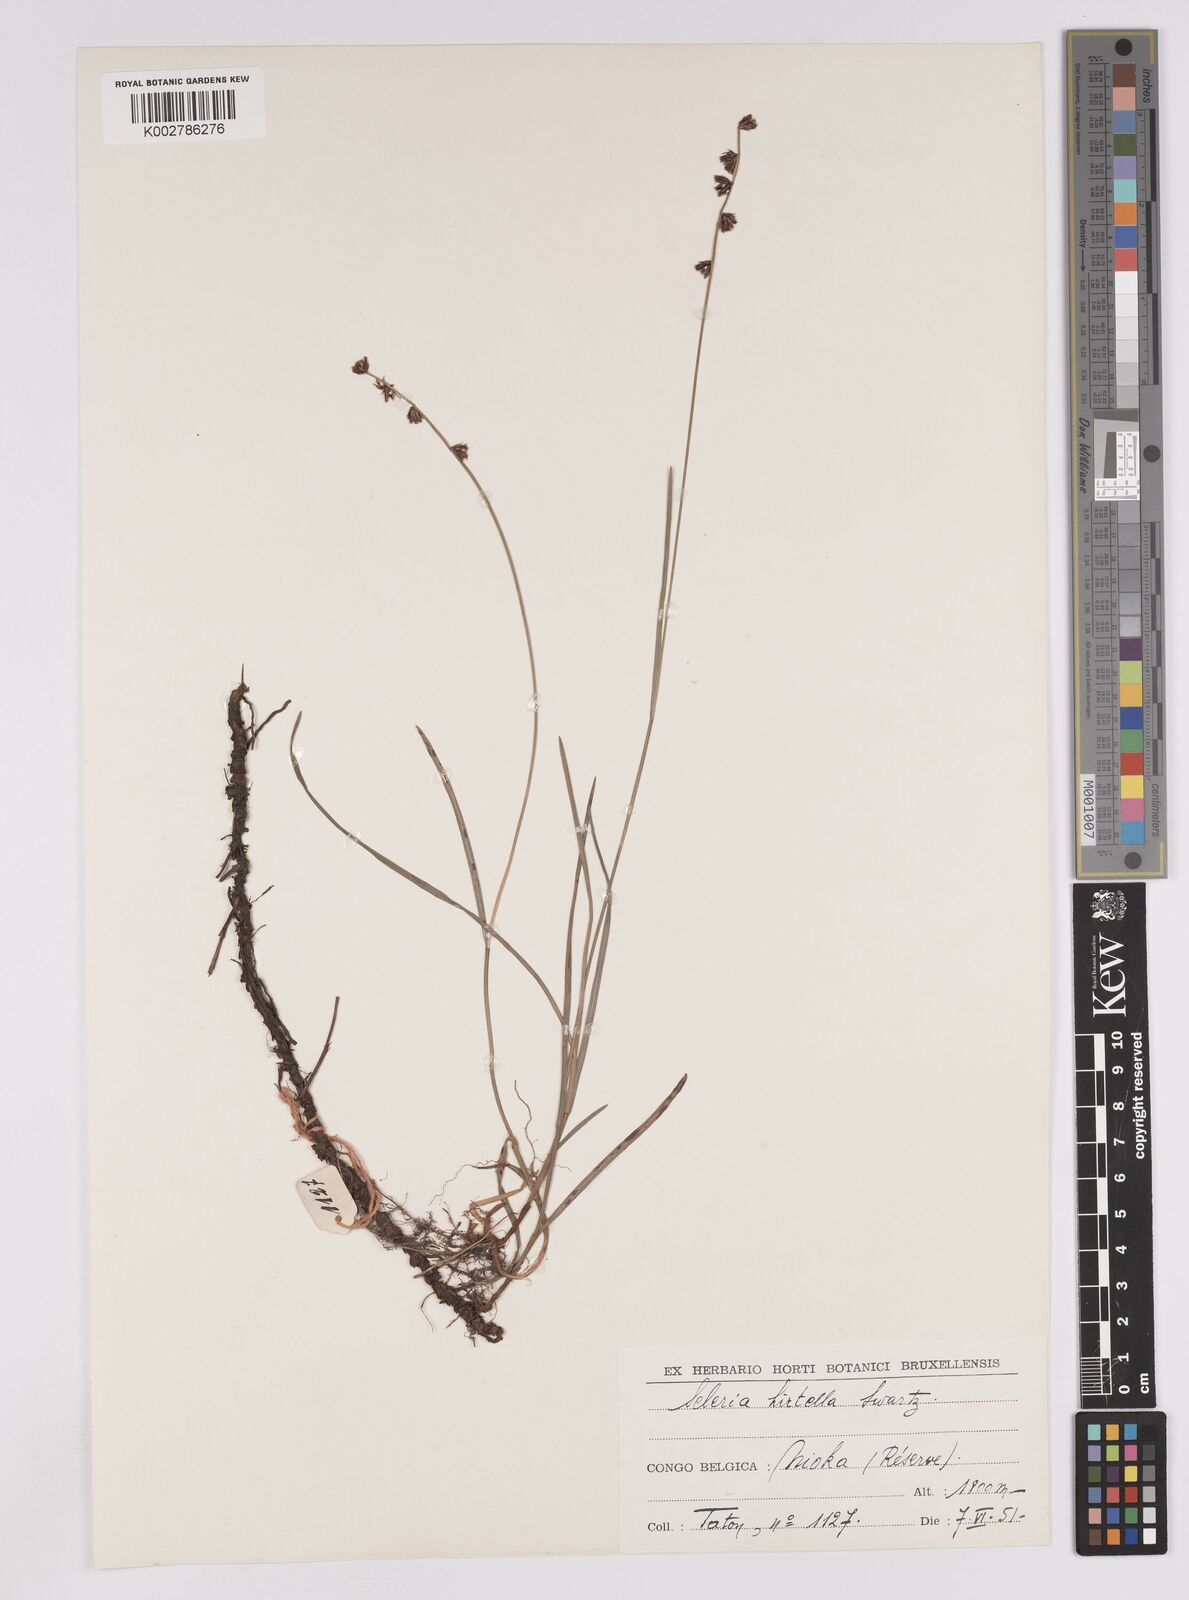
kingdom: Plantae
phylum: Tracheophyta
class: Liliopsida
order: Poales
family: Cyperaceae
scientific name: Cyperaceae
